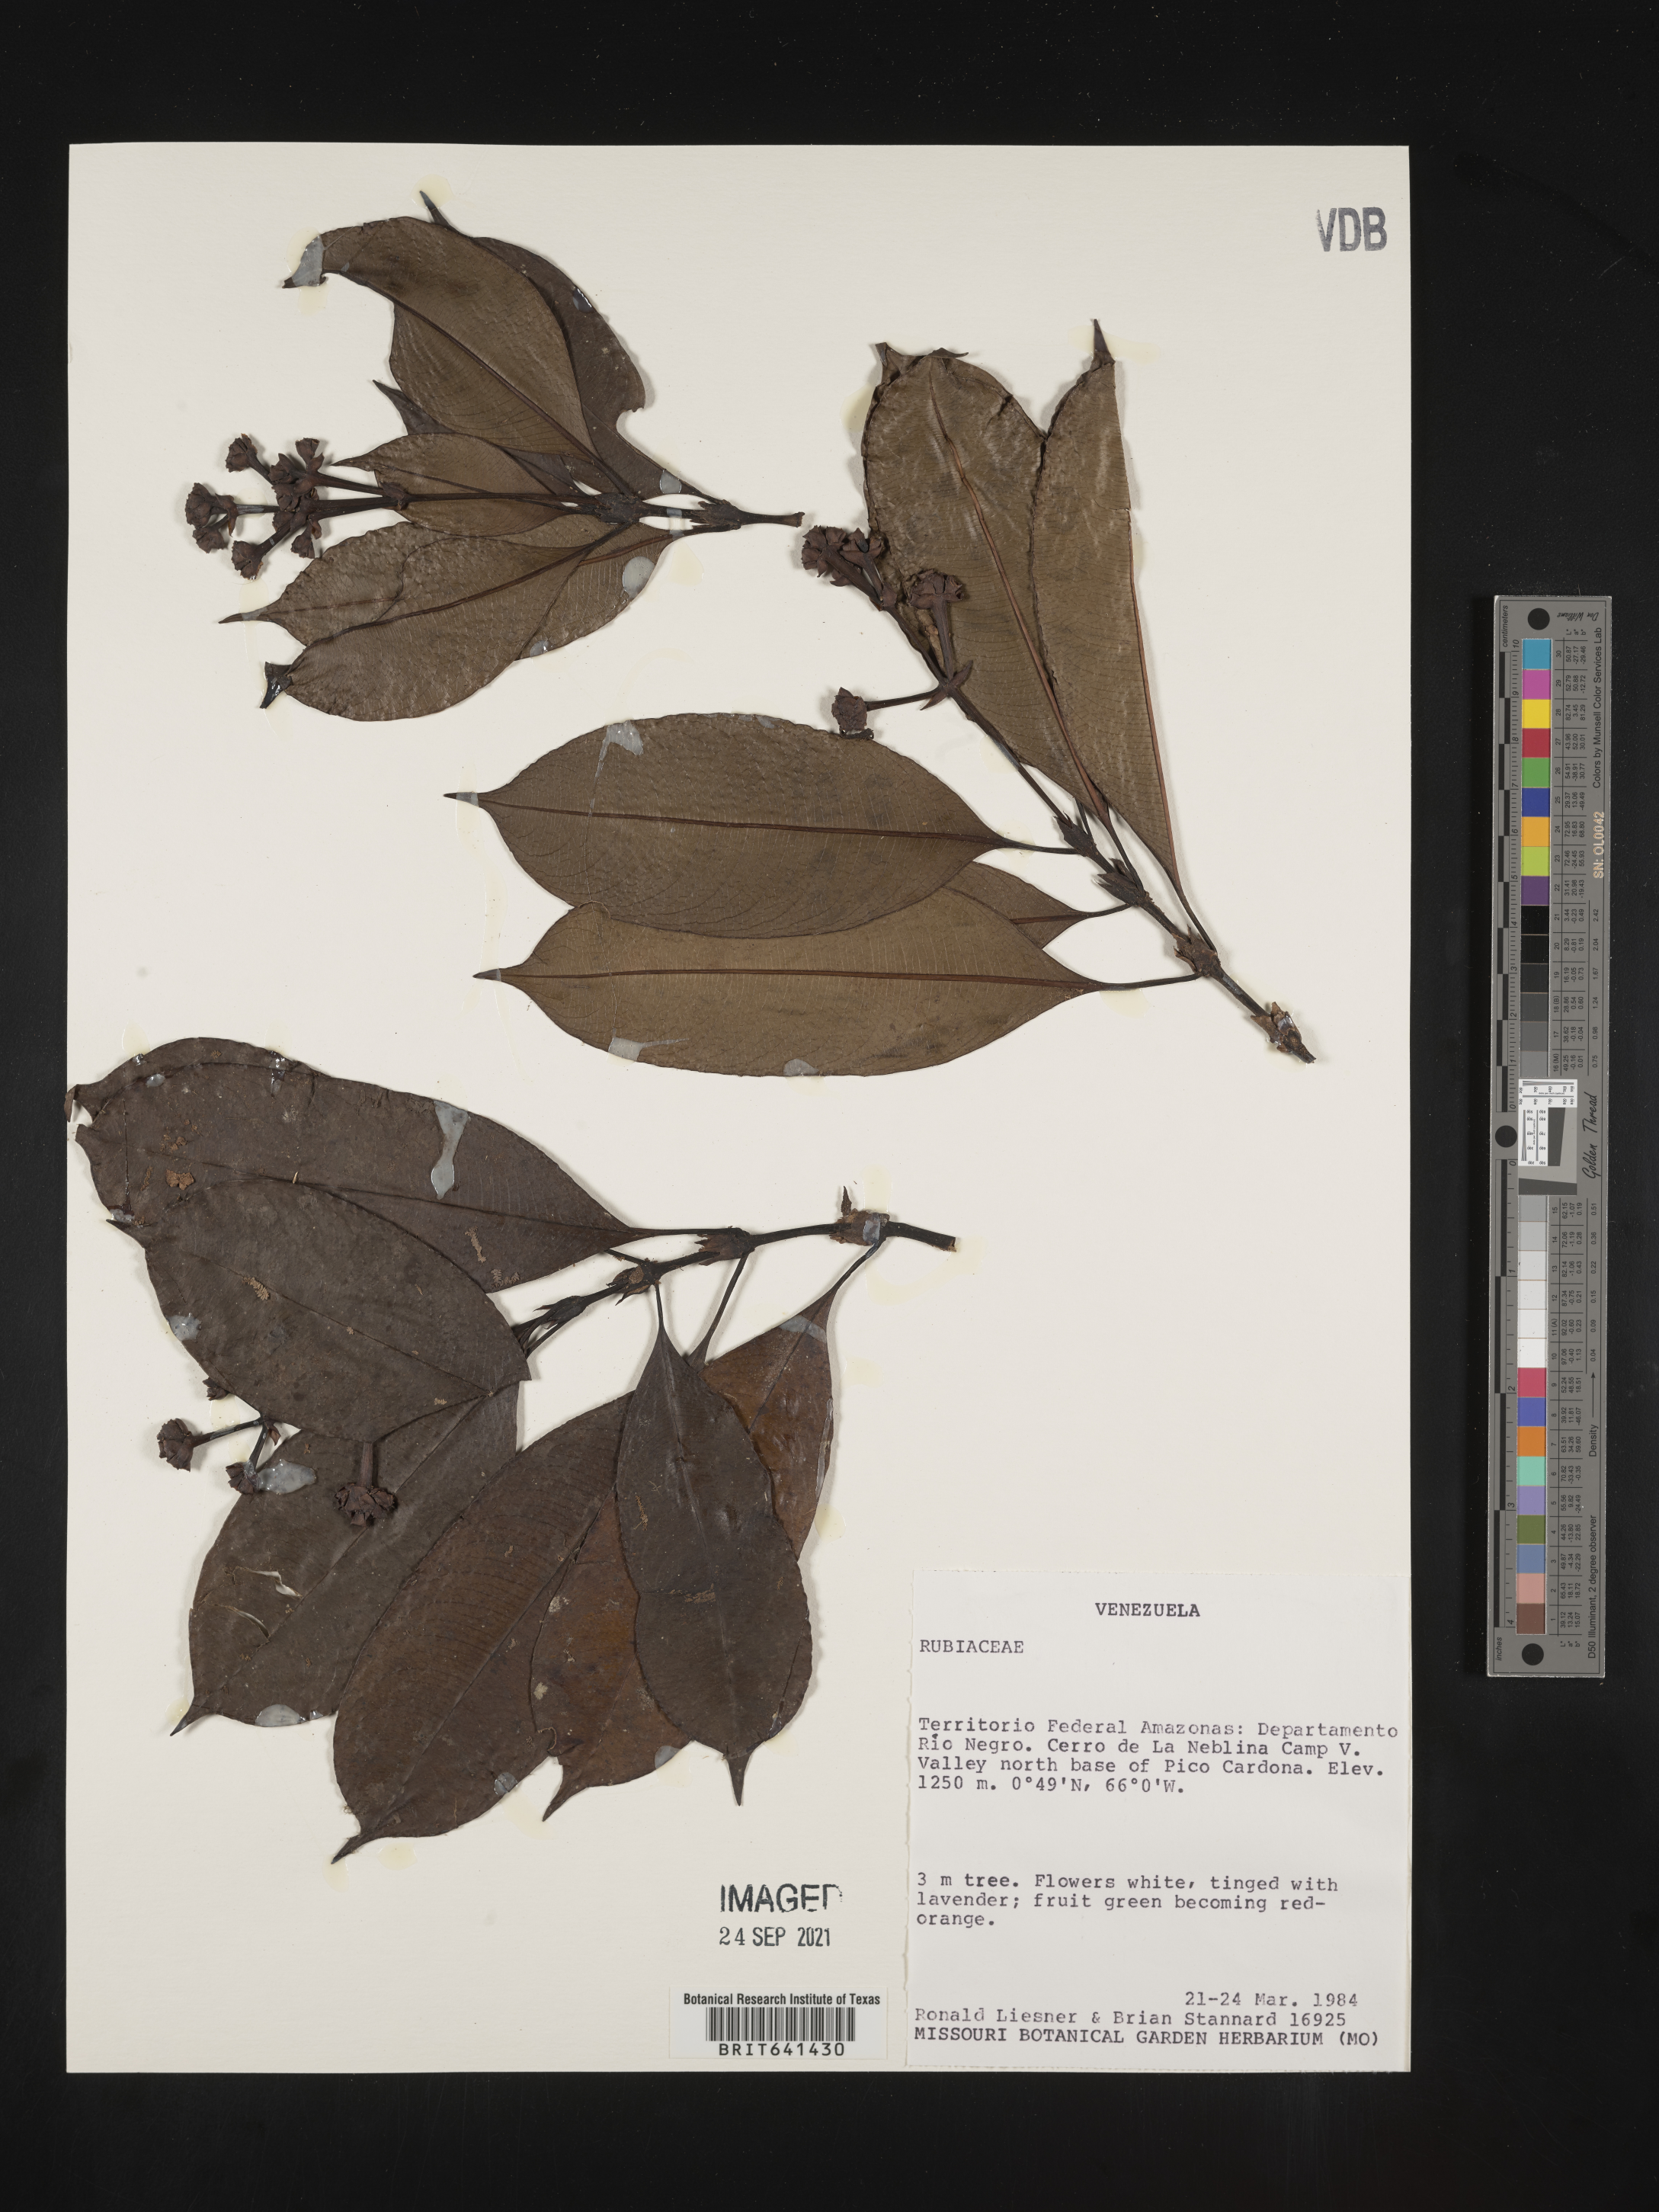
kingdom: Plantae
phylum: Tracheophyta
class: Magnoliopsida
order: Gentianales
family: Rubiaceae
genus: Psychotria
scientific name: Psychotria
